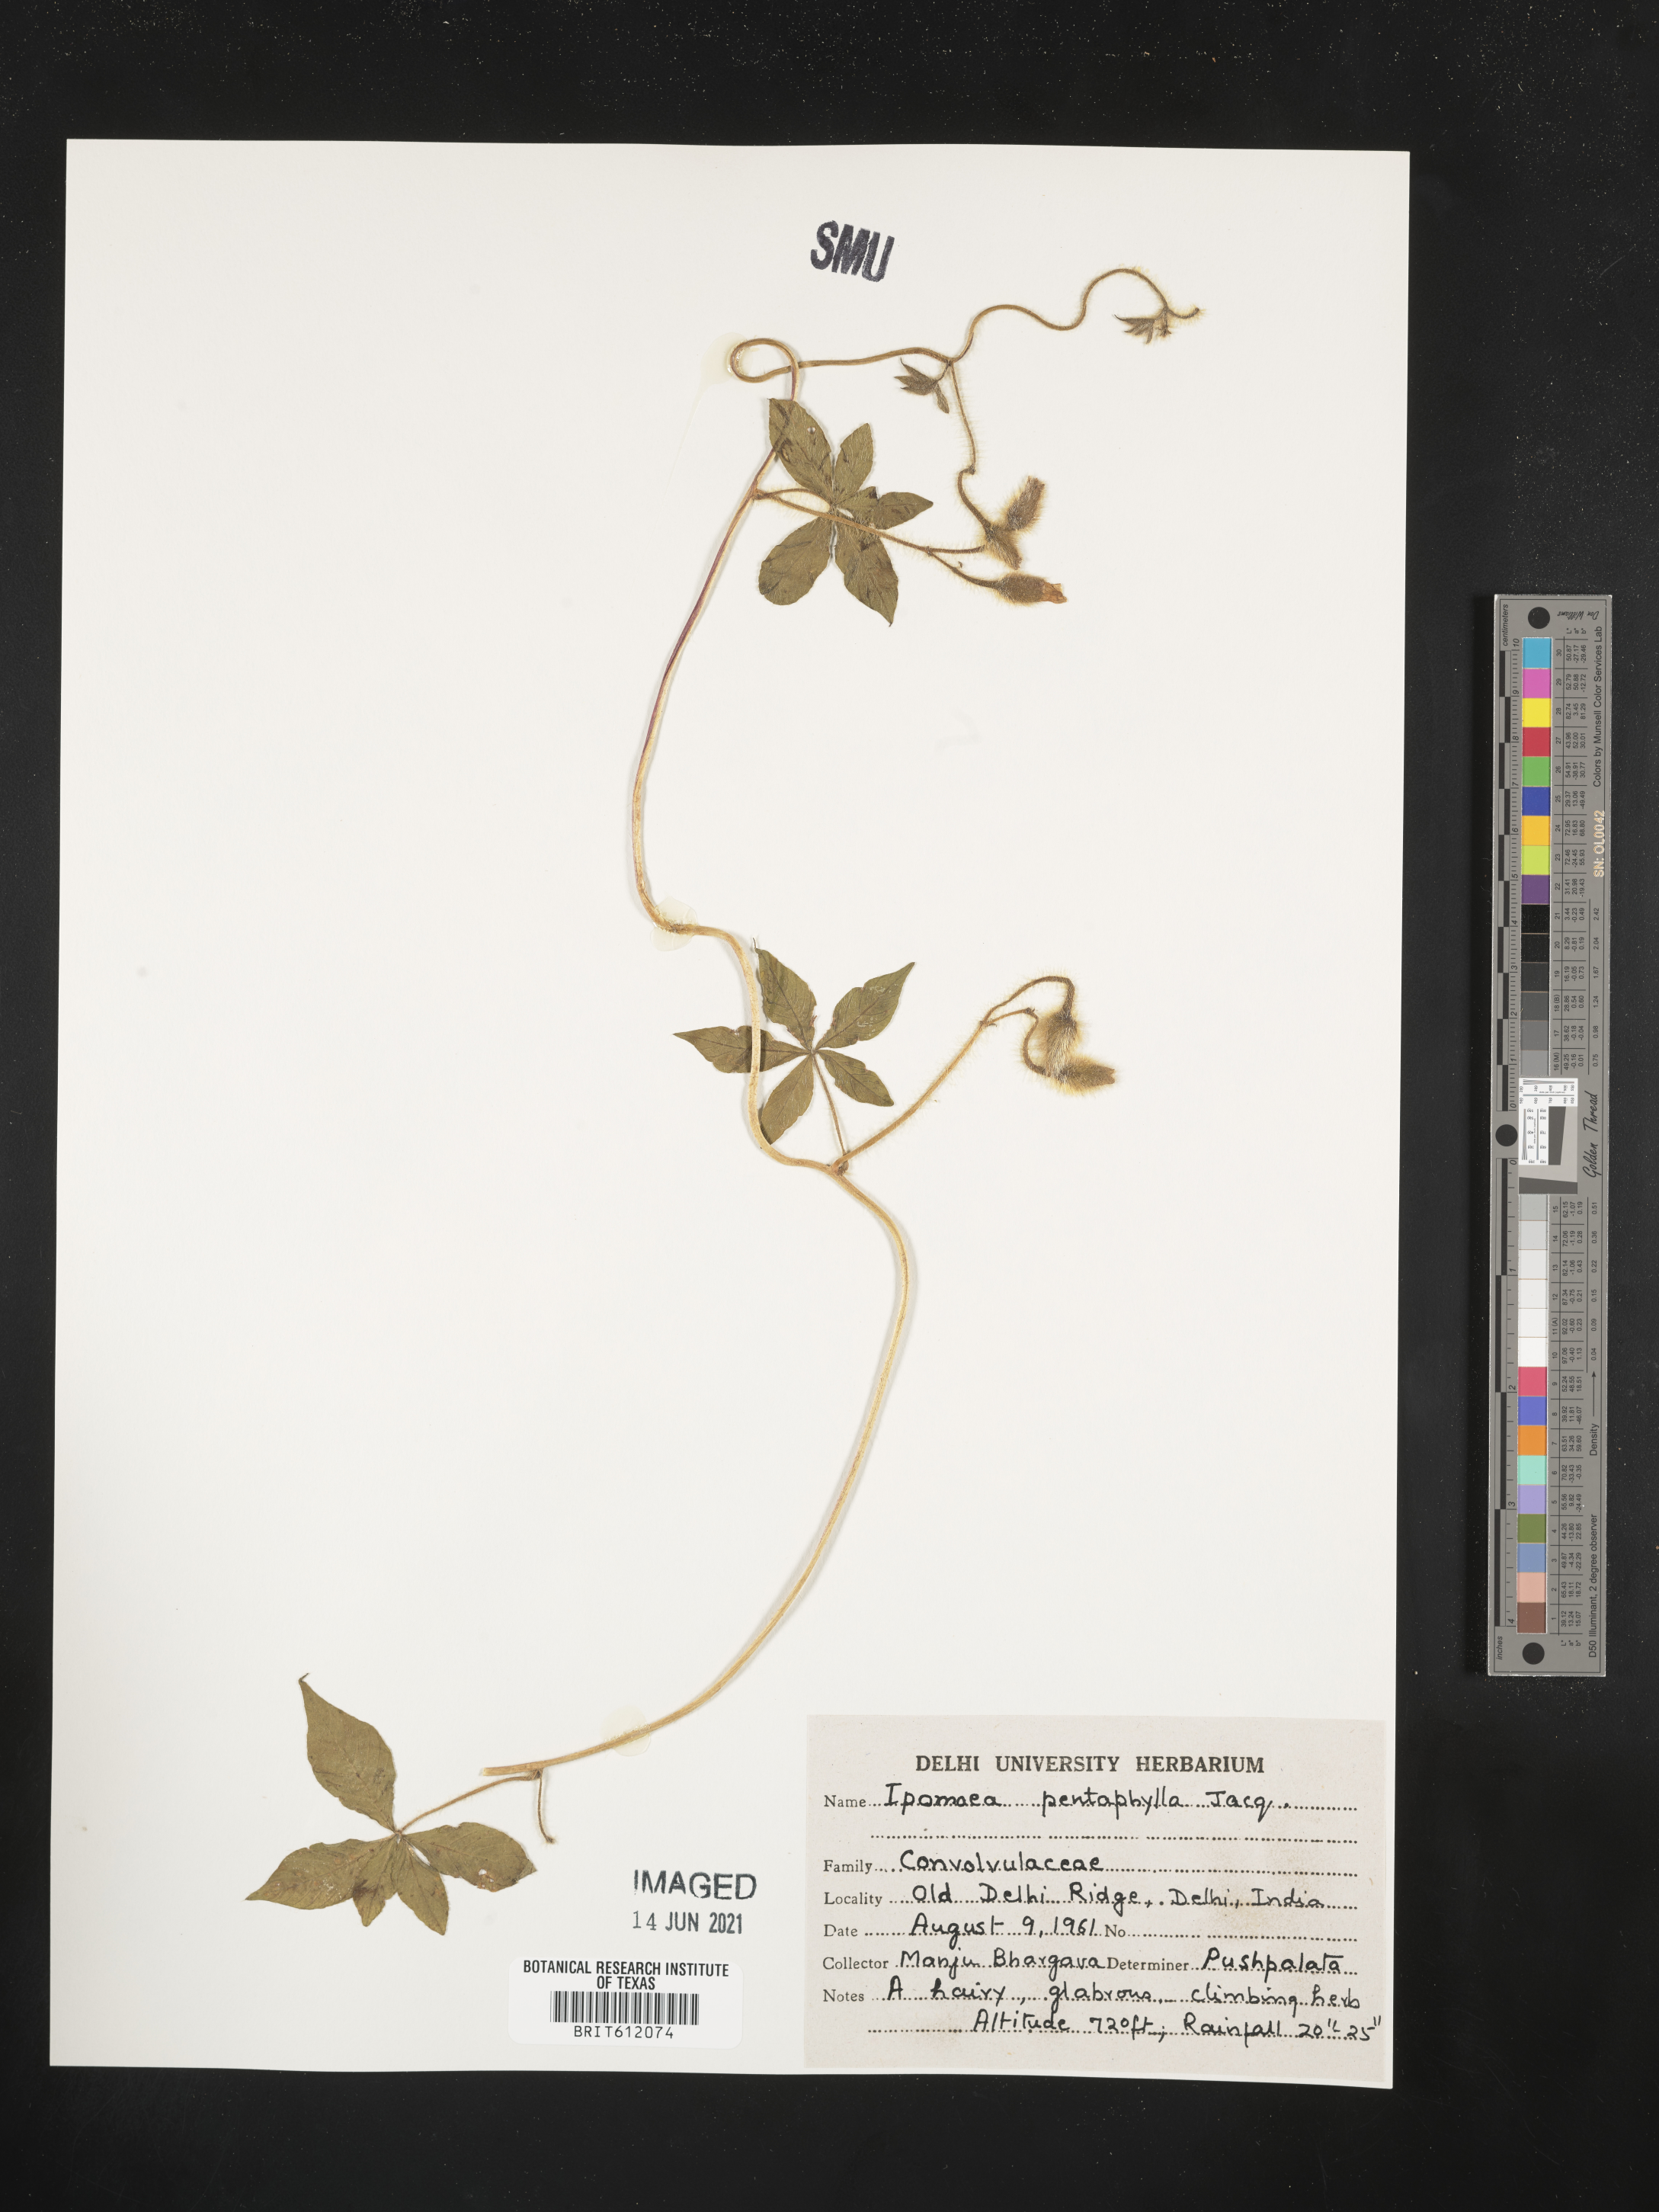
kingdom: Plantae
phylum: Tracheophyta
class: Magnoliopsida
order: Solanales
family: Convolvulaceae
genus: Distimake
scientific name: Distimake aegyptius
